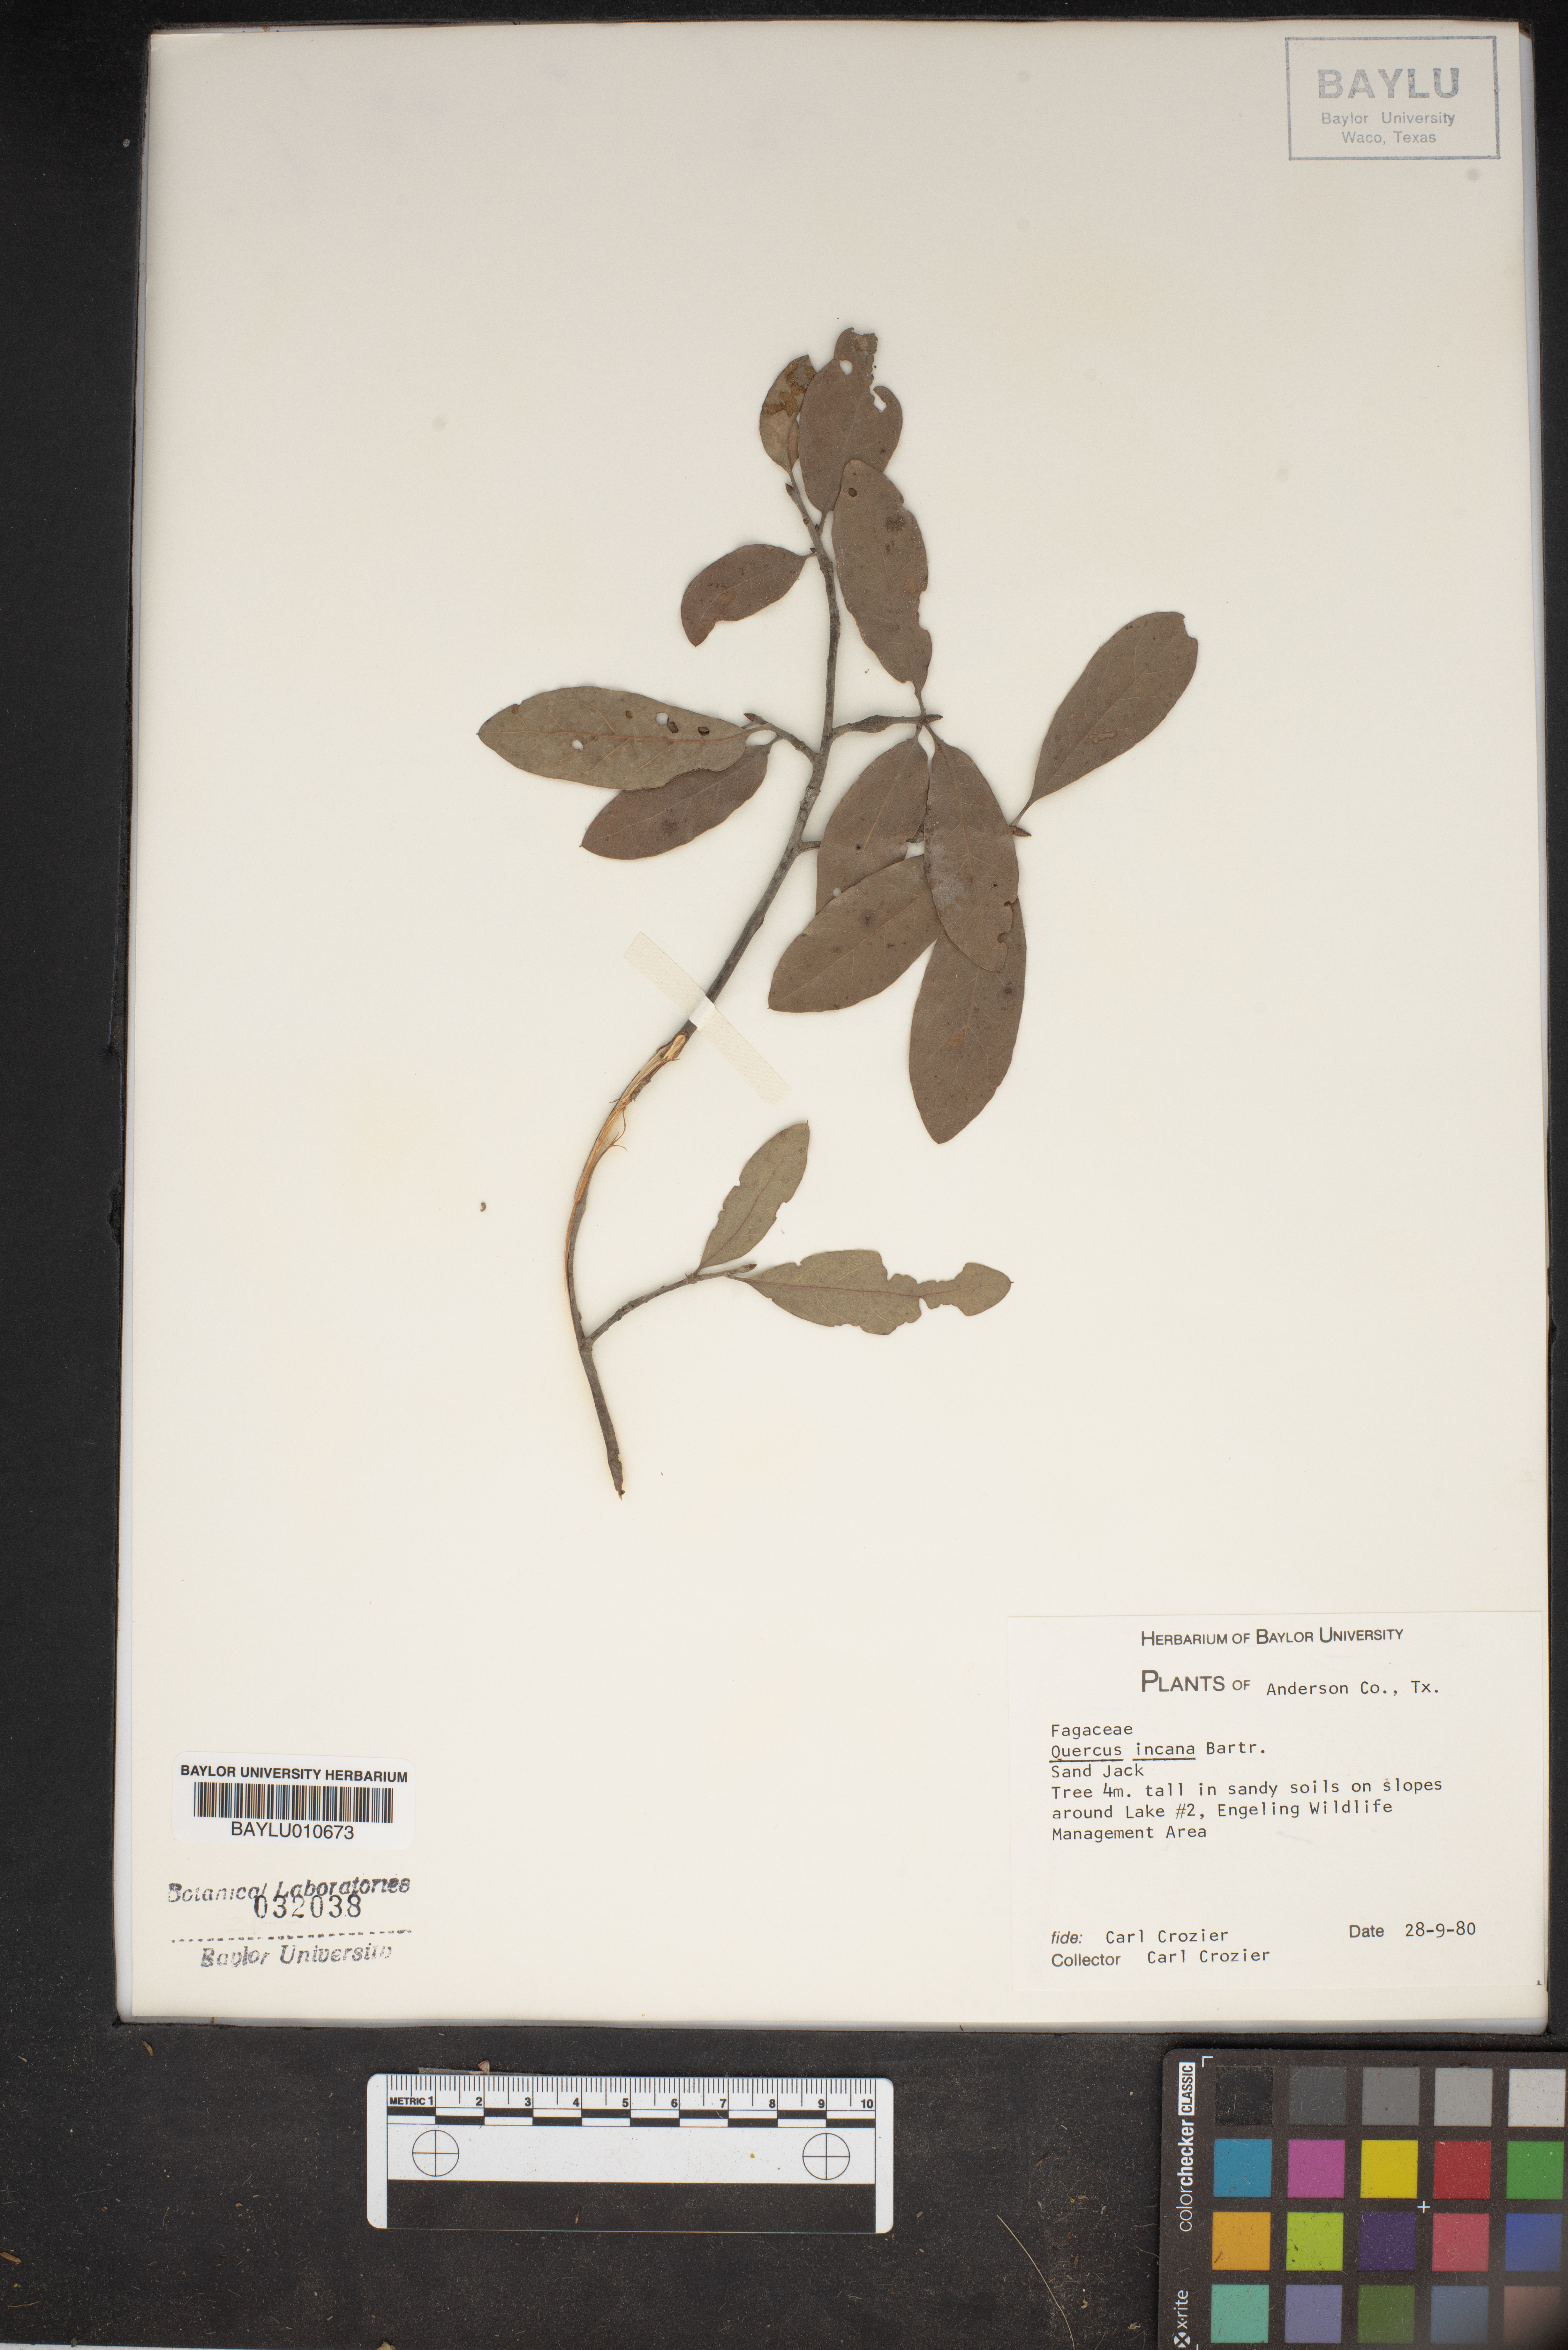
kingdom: Plantae
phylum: Tracheophyta
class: Magnoliopsida
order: Fagales
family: Fagaceae
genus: Quercus
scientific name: Quercus incana
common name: Bluejack oak
